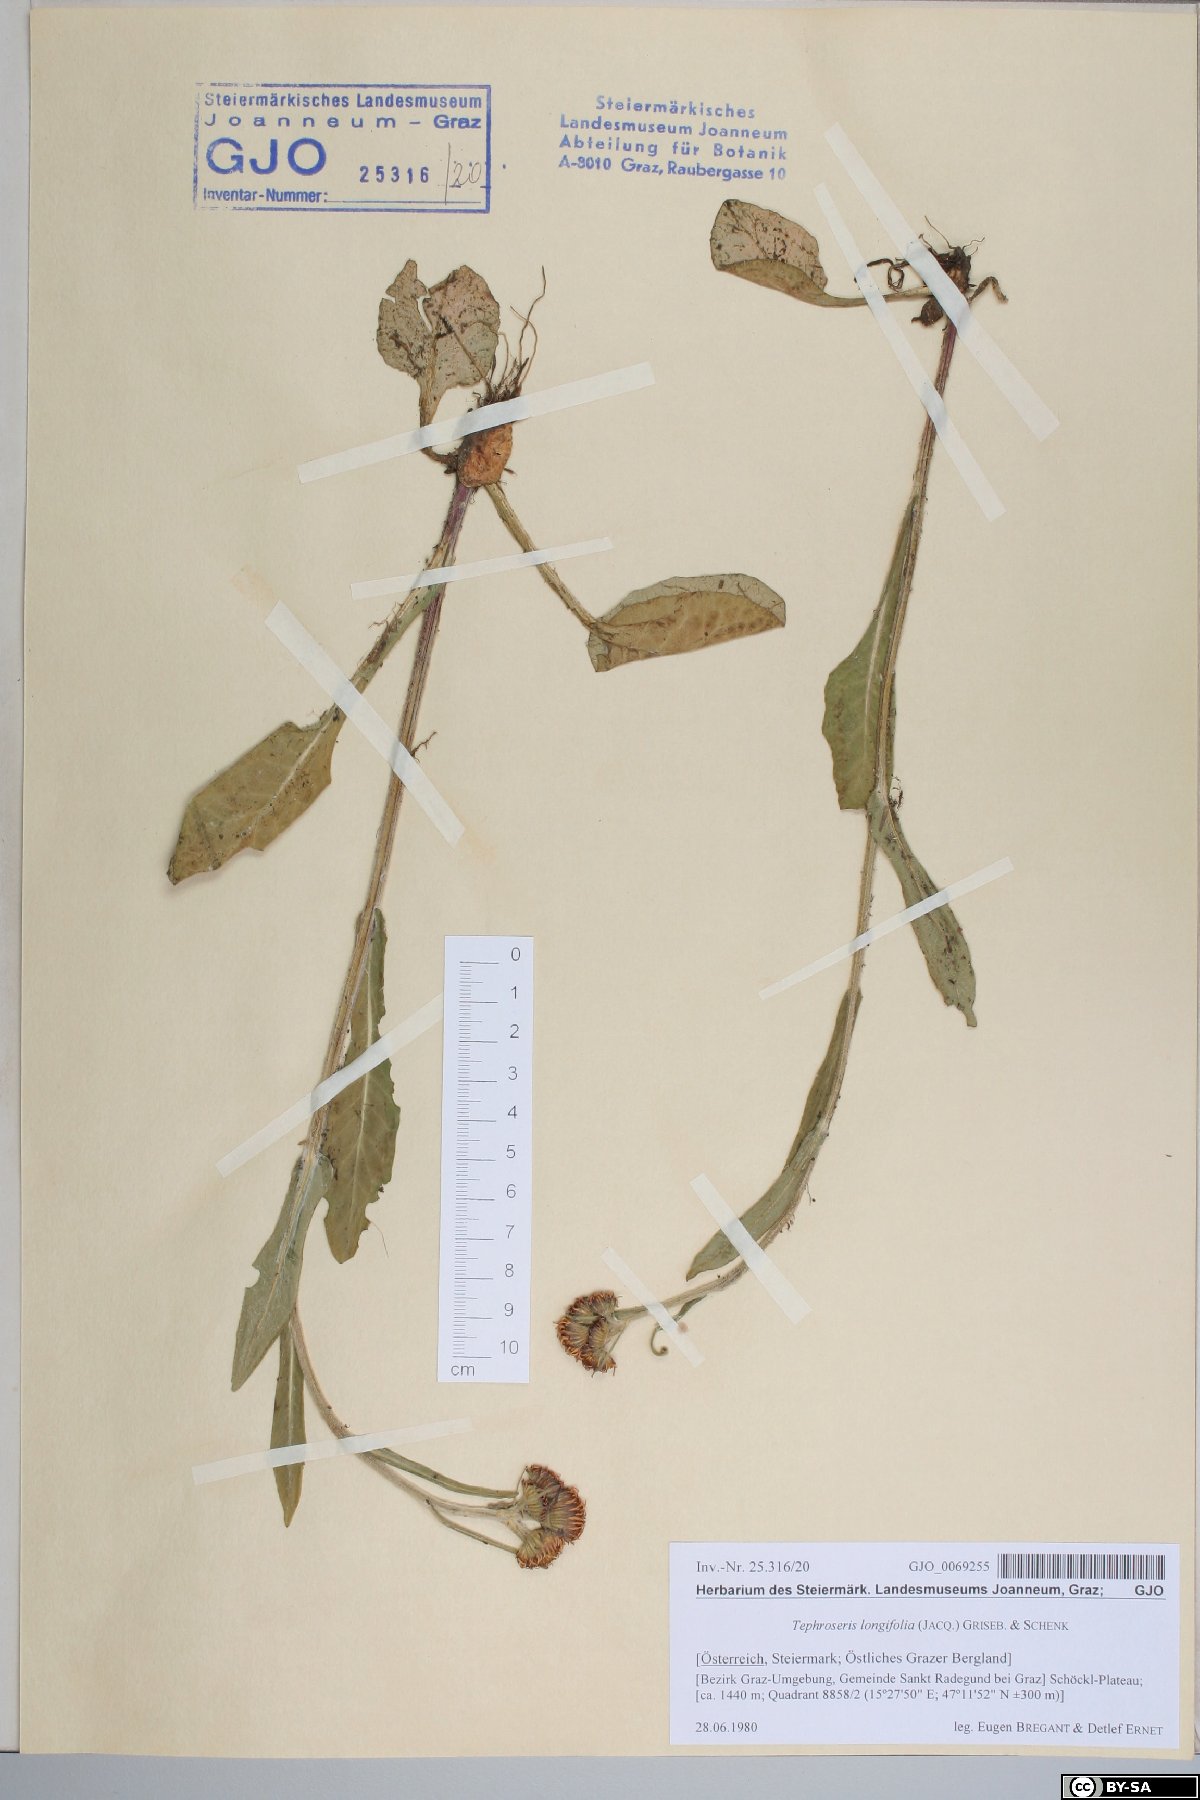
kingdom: Plantae
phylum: Tracheophyta
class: Magnoliopsida
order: Asterales
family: Asteraceae
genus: Tephroseris
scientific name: Tephroseris longifolia
